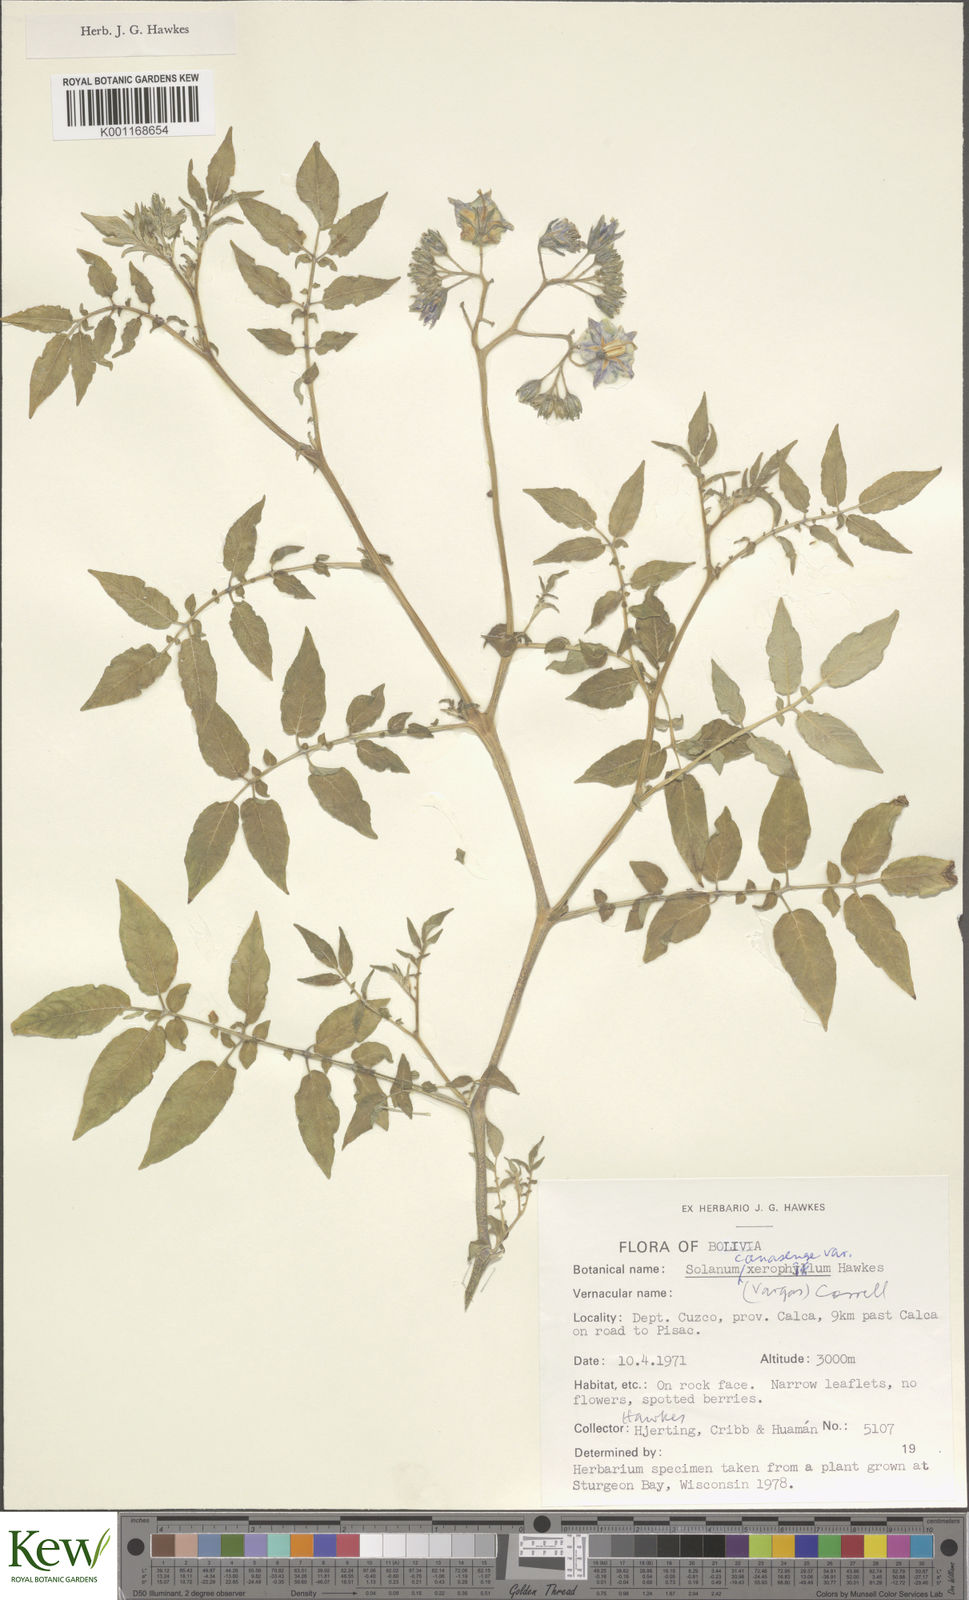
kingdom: Plantae
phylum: Tracheophyta
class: Magnoliopsida
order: Solanales
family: Solanaceae
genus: Solanum
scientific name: Solanum candolleanum
